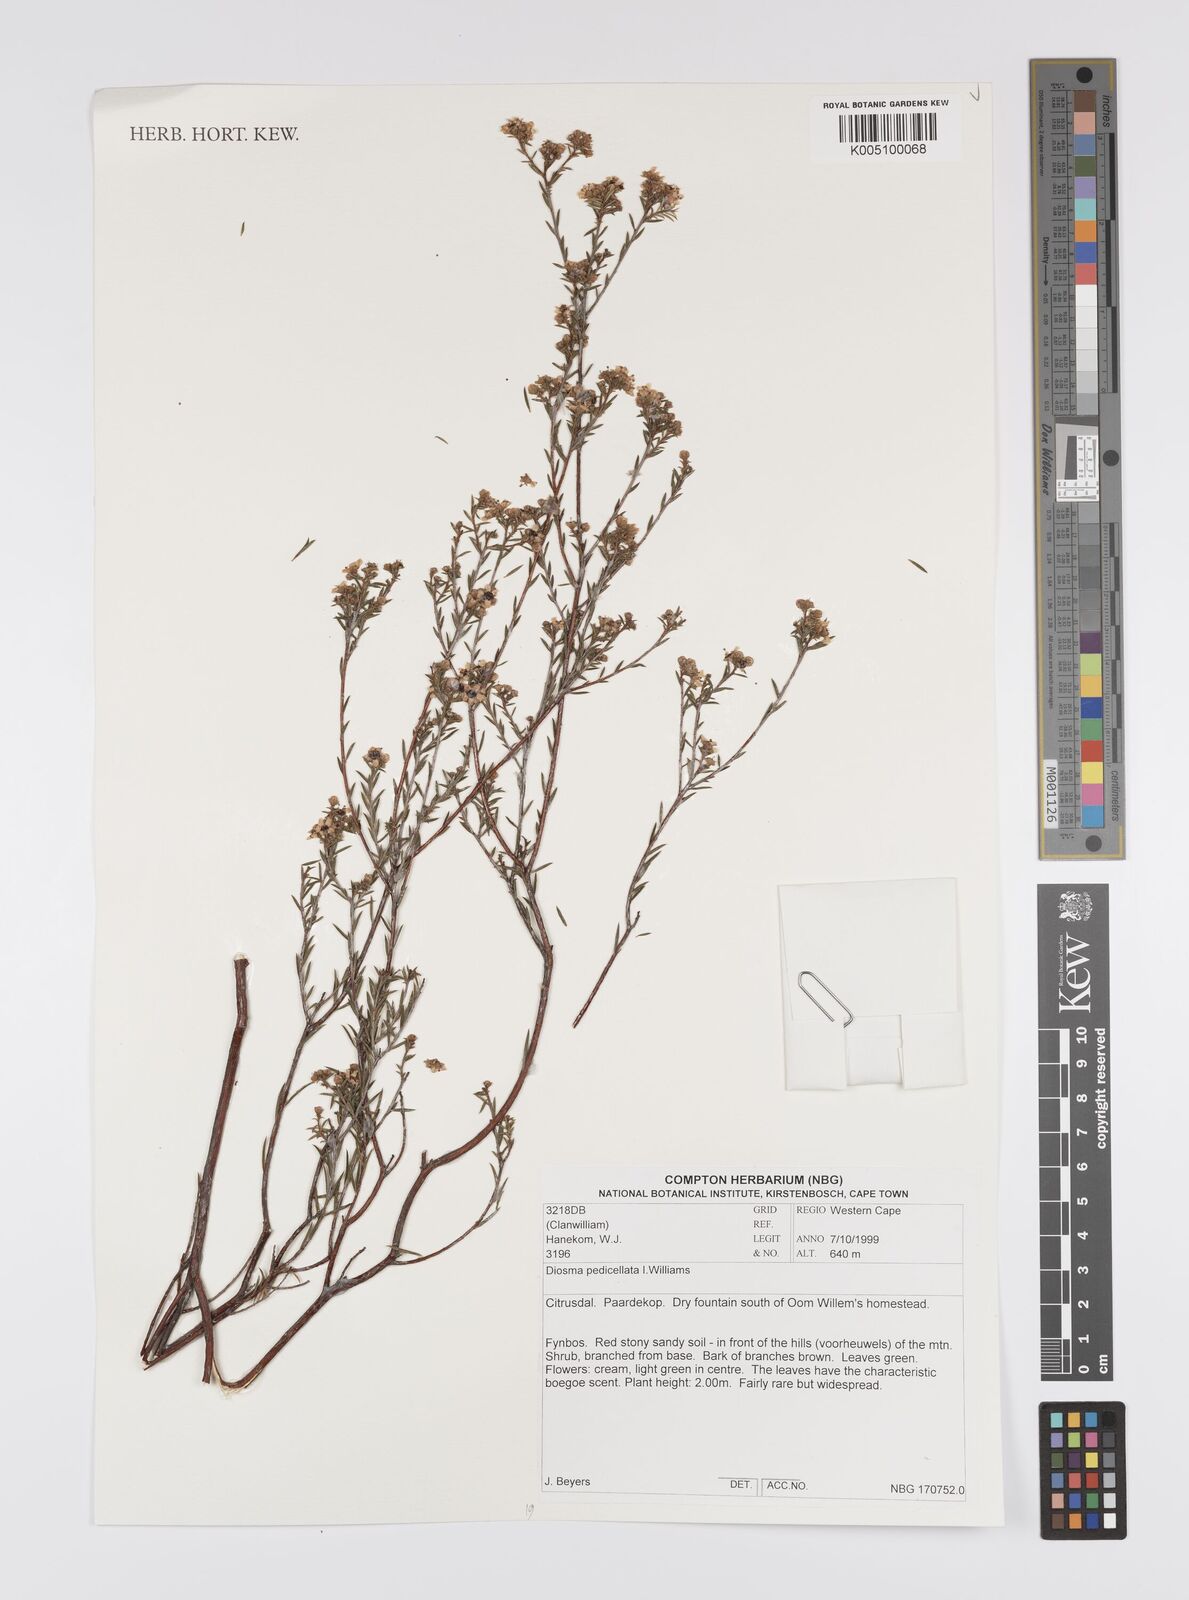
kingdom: Plantae
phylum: Tracheophyta
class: Magnoliopsida
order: Sapindales
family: Rutaceae
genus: Diosma
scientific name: Diosma pedicellata
